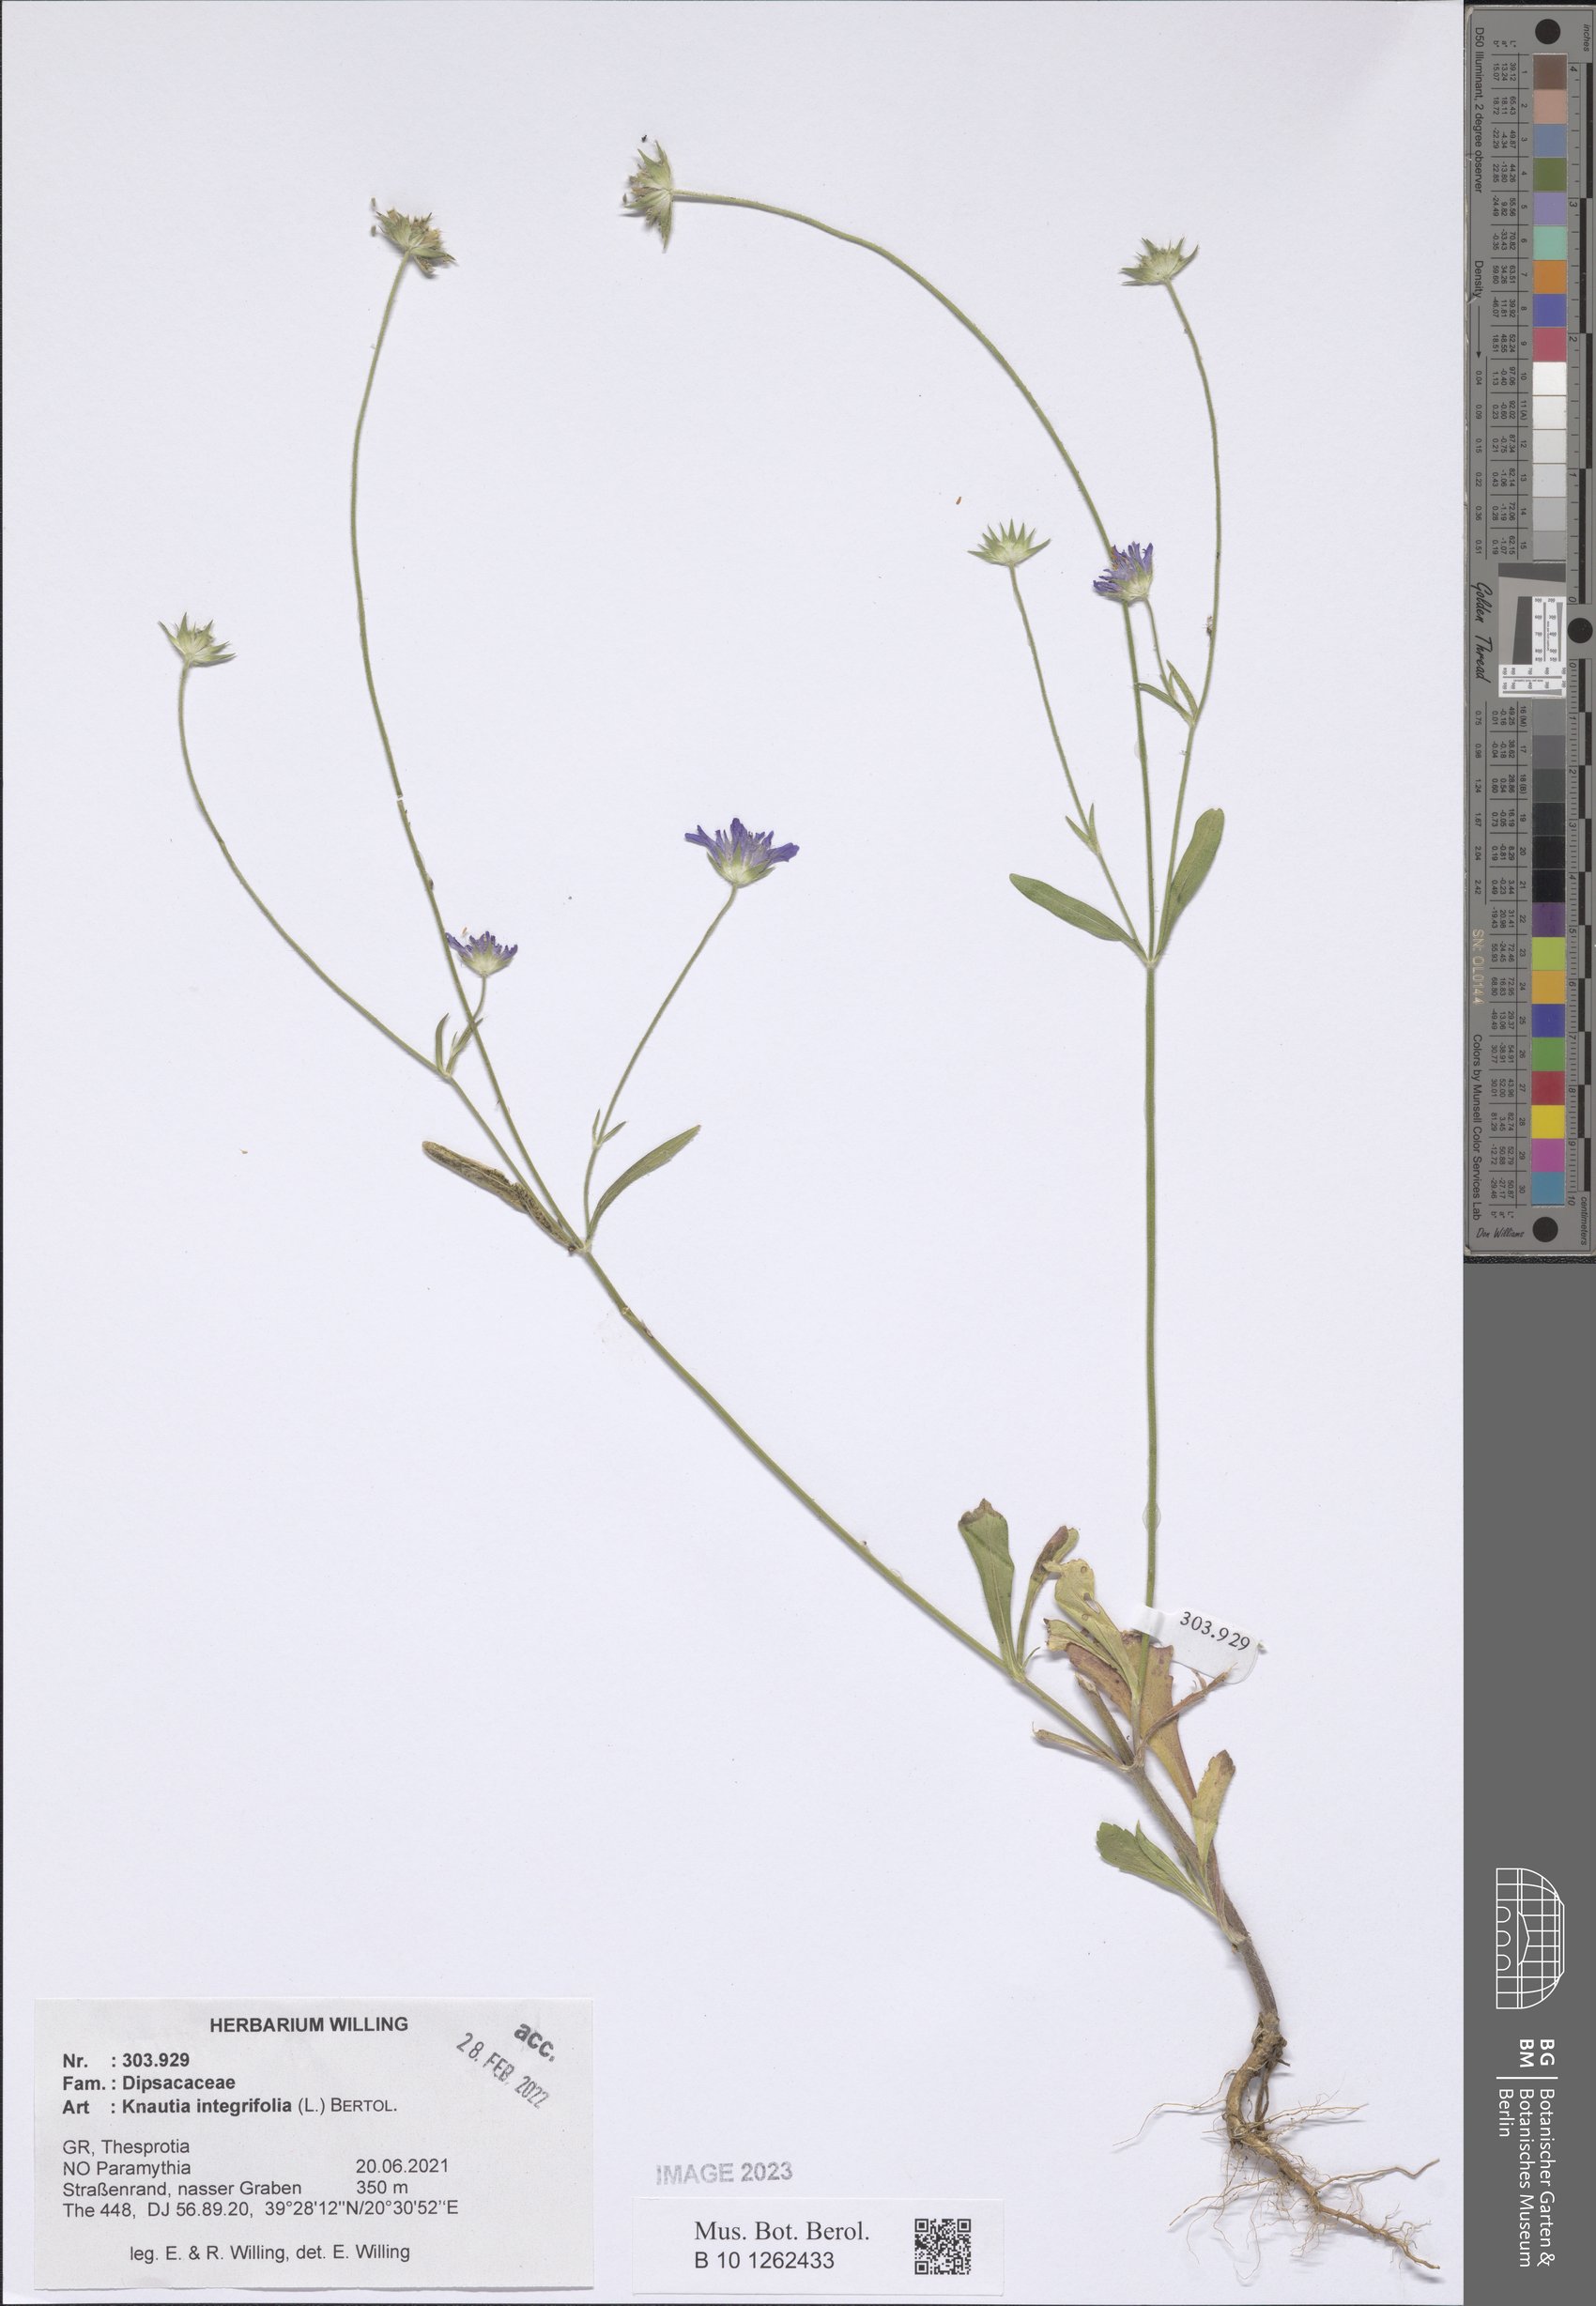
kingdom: Plantae
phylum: Tracheophyta
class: Magnoliopsida
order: Dipsacales
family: Caprifoliaceae
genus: Knautia
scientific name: Knautia integrifolia
